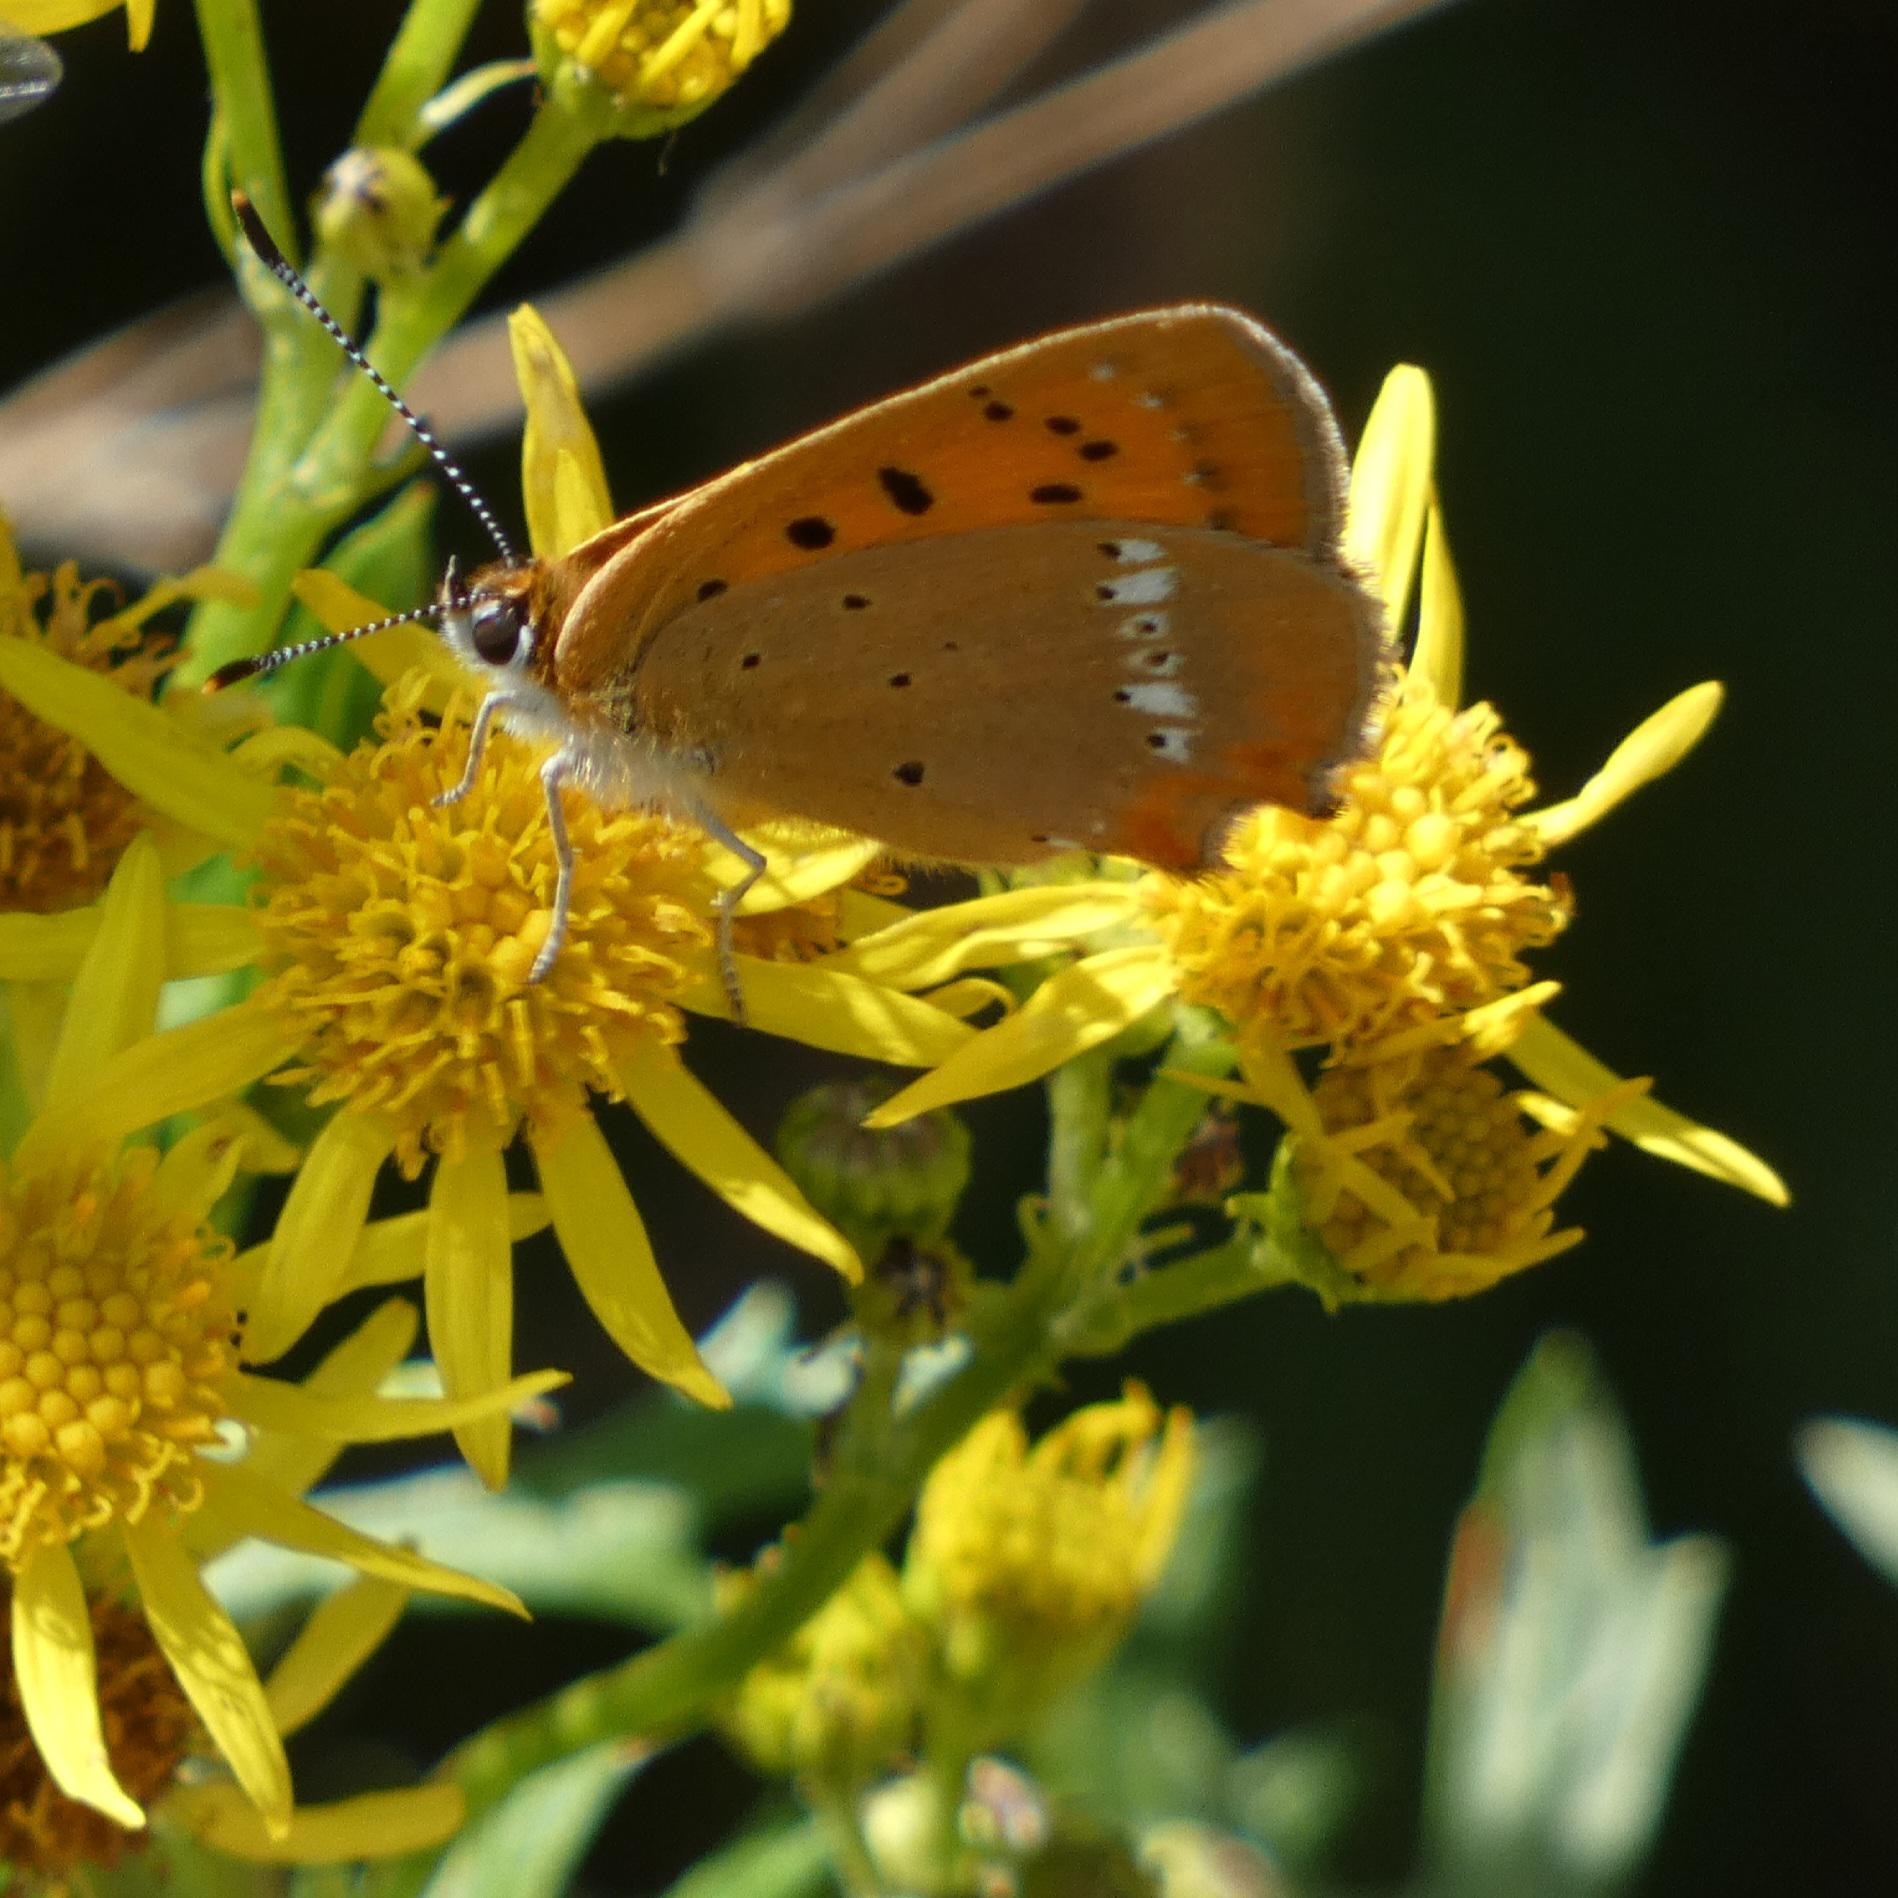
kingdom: Animalia
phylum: Arthropoda
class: Insecta
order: Lepidoptera
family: Lycaenidae
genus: Lycaena
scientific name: Lycaena virgaureae
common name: Dukatsommerfugl
